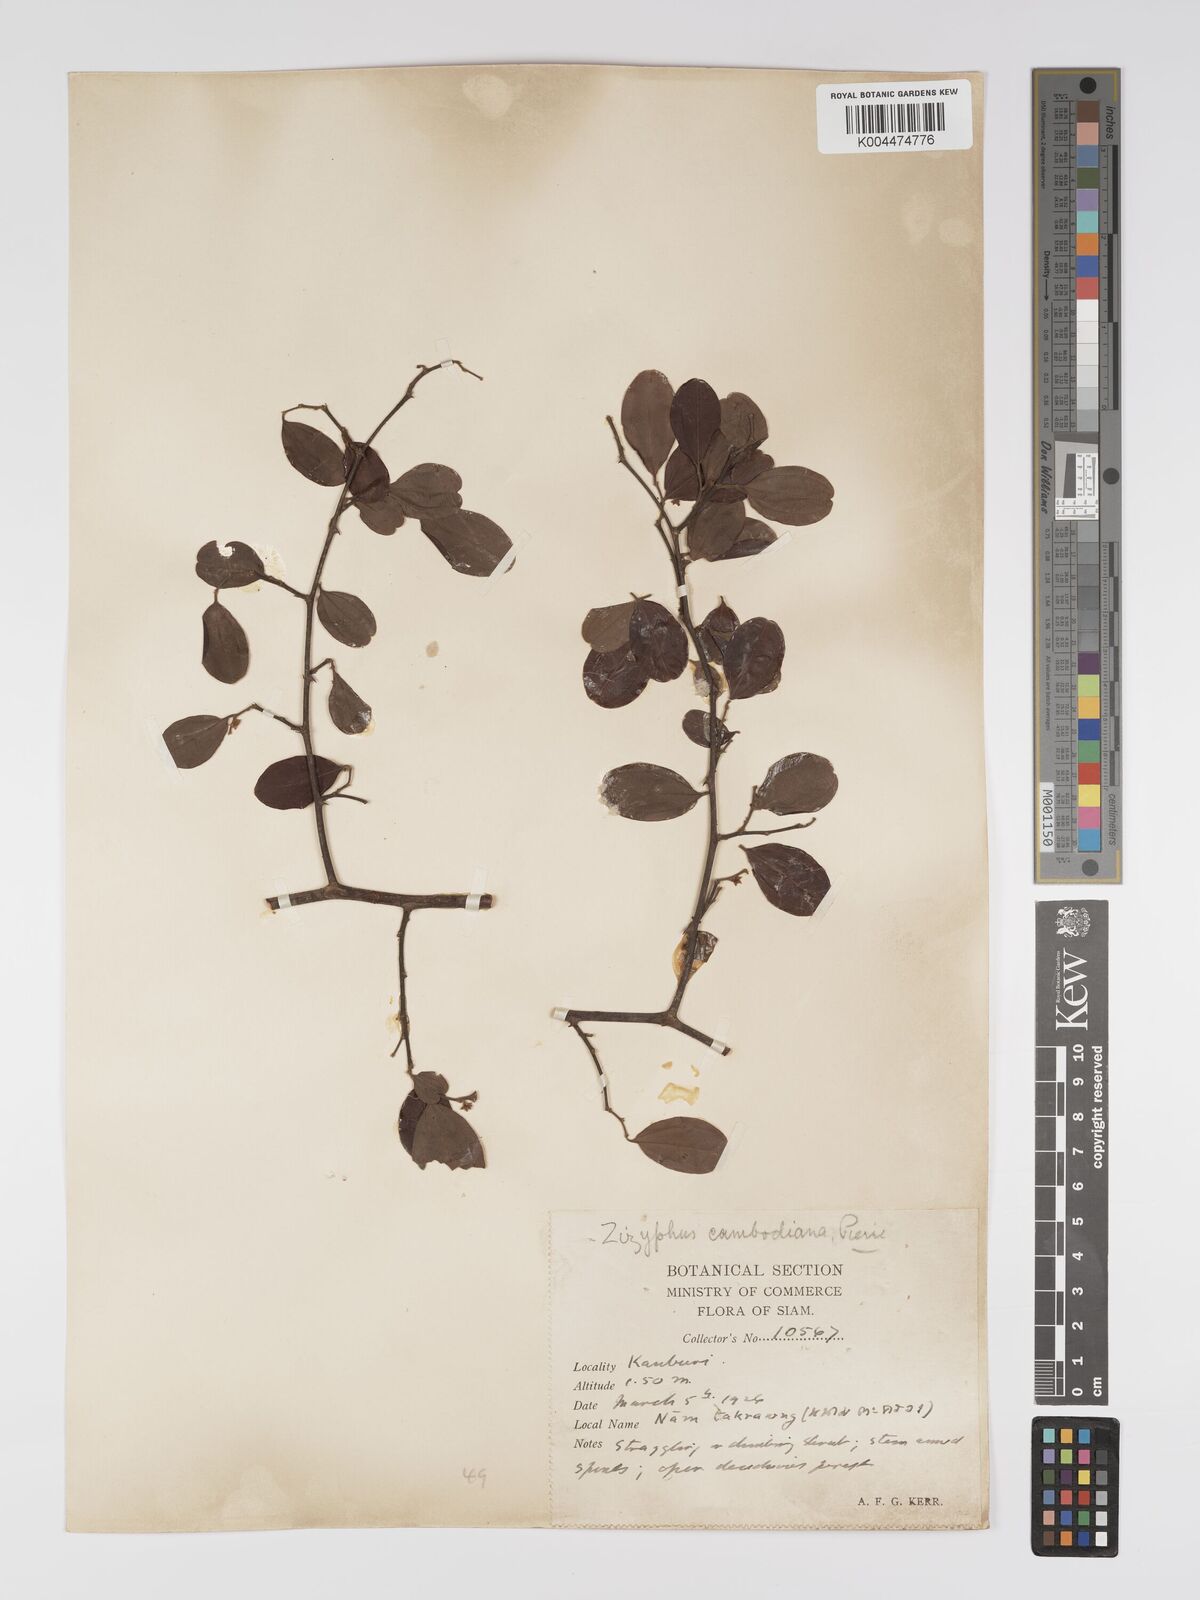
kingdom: Plantae
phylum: Tracheophyta
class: Magnoliopsida
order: Rosales
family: Rhamnaceae
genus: Ziziphus
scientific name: Ziziphus cambodiana
